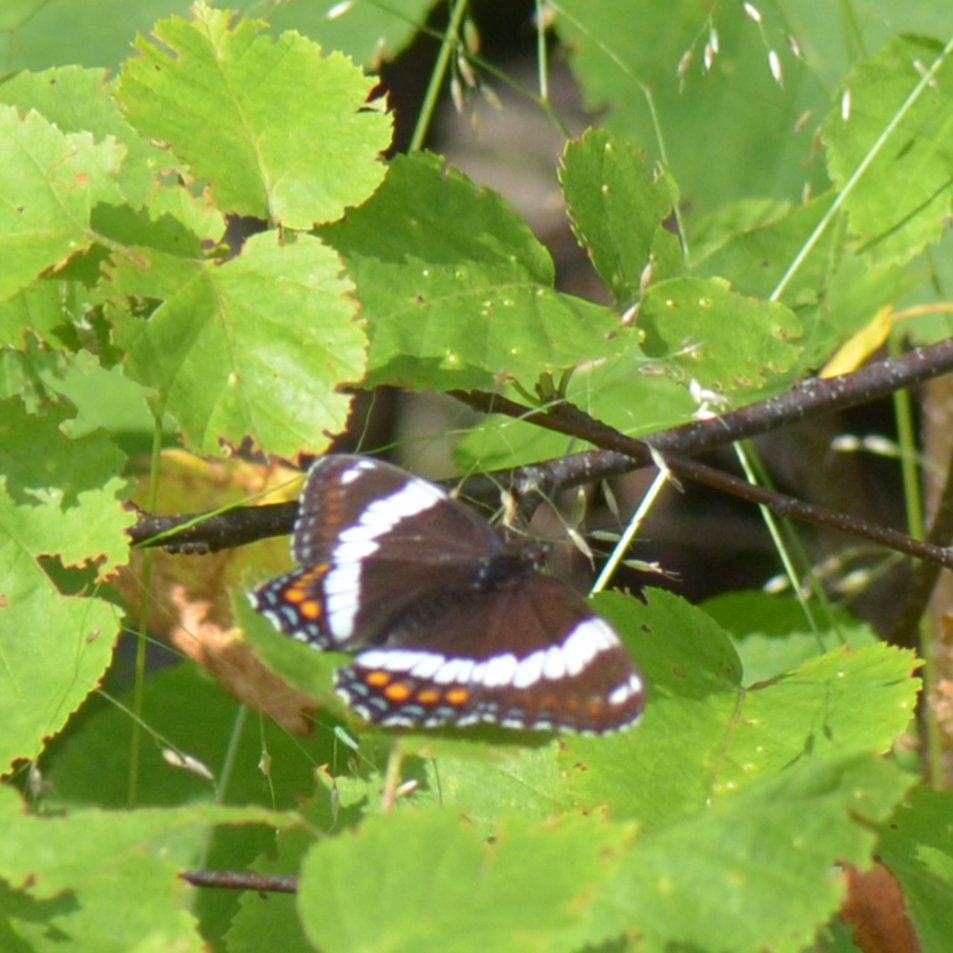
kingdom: Animalia
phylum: Arthropoda
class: Insecta
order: Lepidoptera
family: Nymphalidae
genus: Limenitis
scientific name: Limenitis arthemis
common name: Red-spotted Admiral
